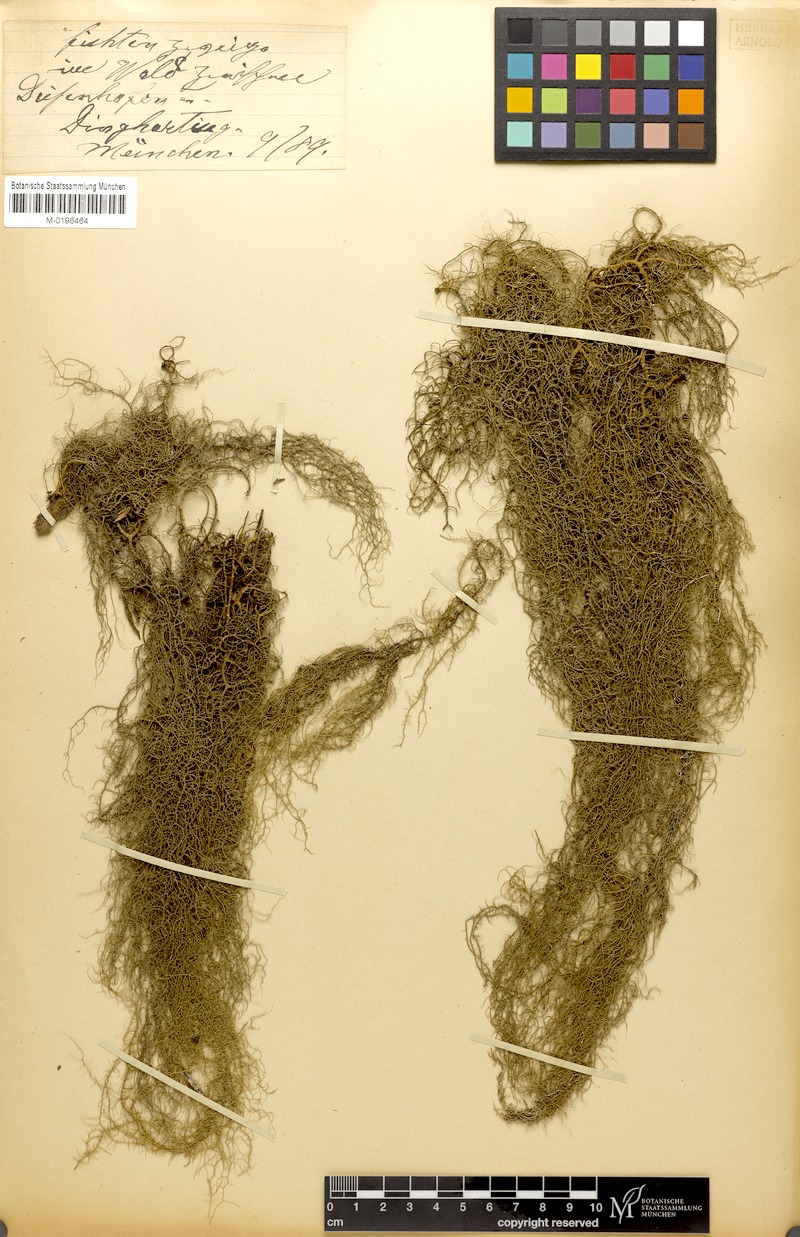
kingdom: Fungi
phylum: Ascomycota
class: Lecanoromycetes
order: Lecanorales
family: Parmeliaceae
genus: Usnea
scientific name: Usnea ceratina
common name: Warty beard lichen
